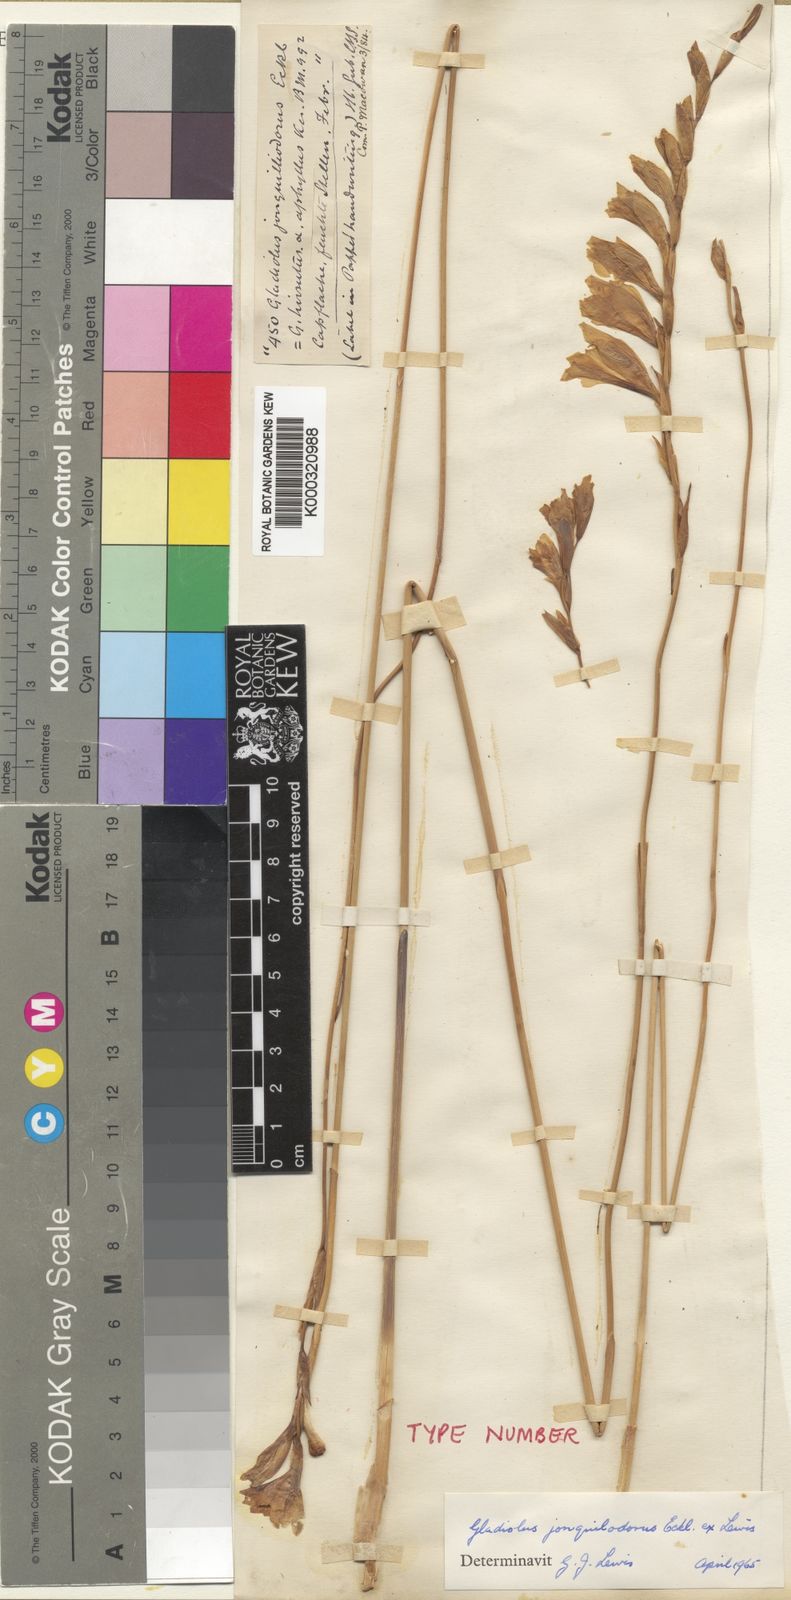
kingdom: Plantae
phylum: Tracheophyta
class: Liliopsida
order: Asparagales
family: Iridaceae
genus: Gladiolus
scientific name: Gladiolus
